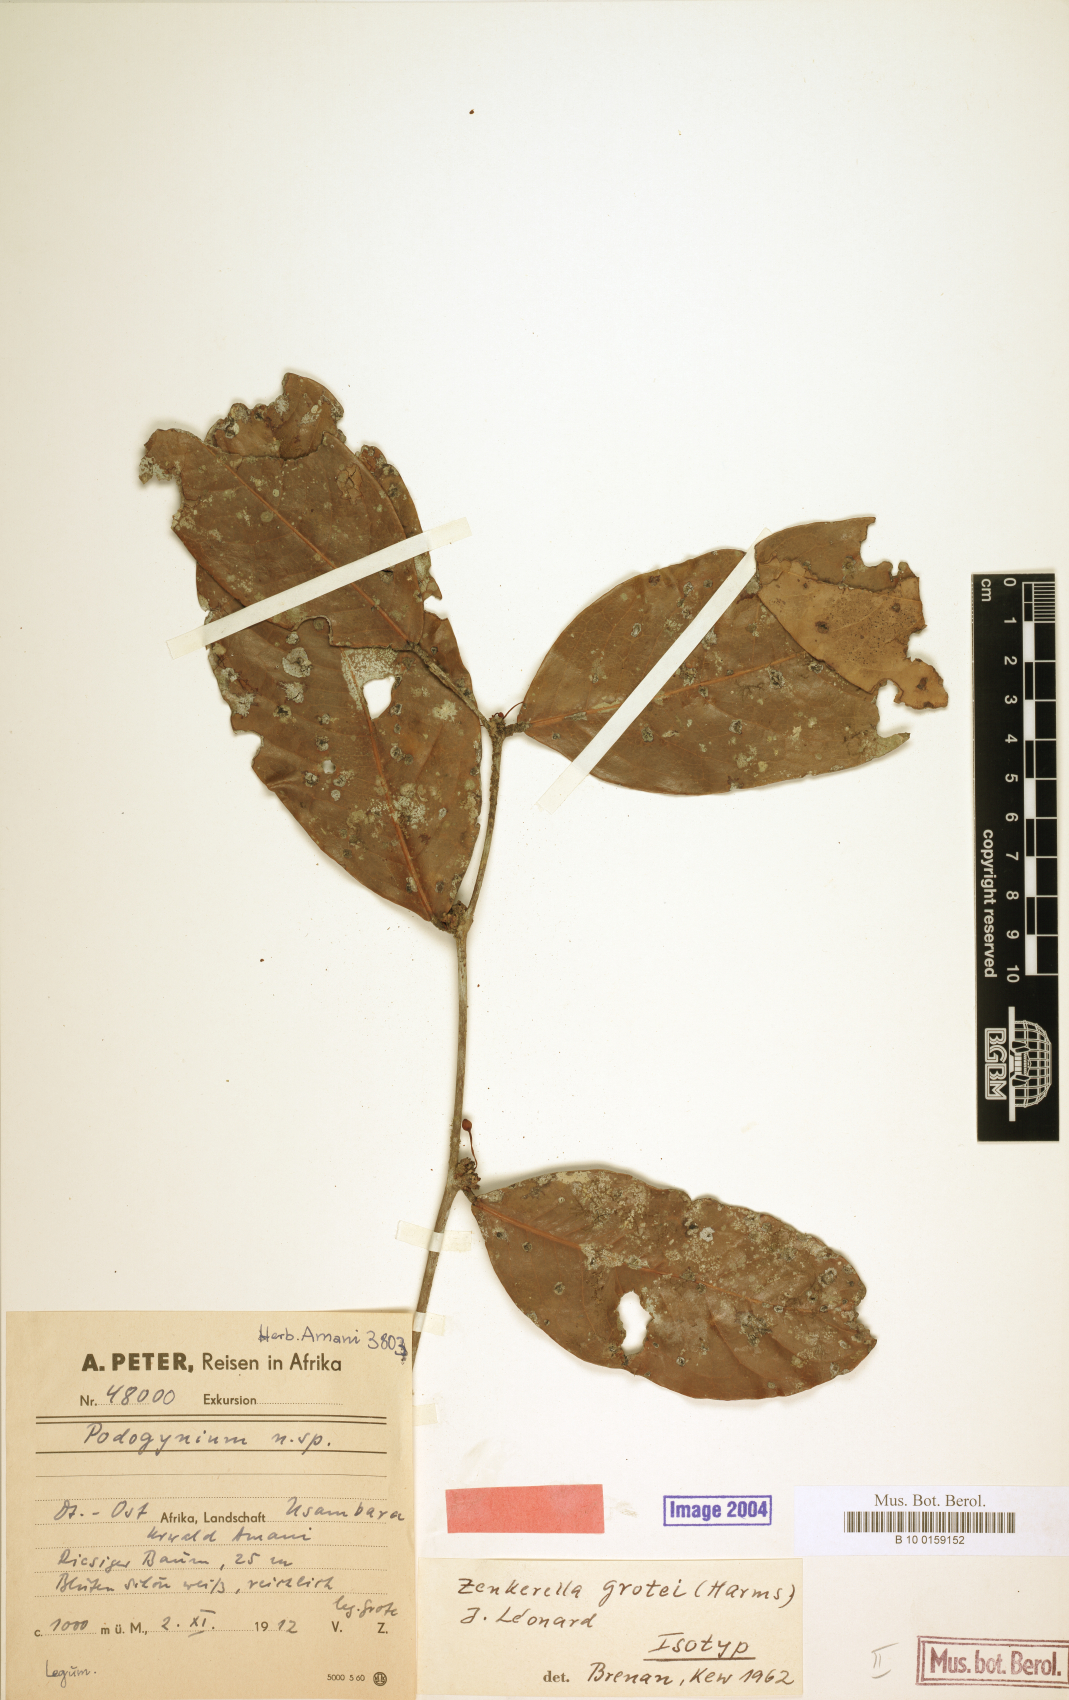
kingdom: Plantae
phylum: Tracheophyta
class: Magnoliopsida
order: Fabales
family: Fabaceae
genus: Zenkerella
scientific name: Zenkerella grotei
